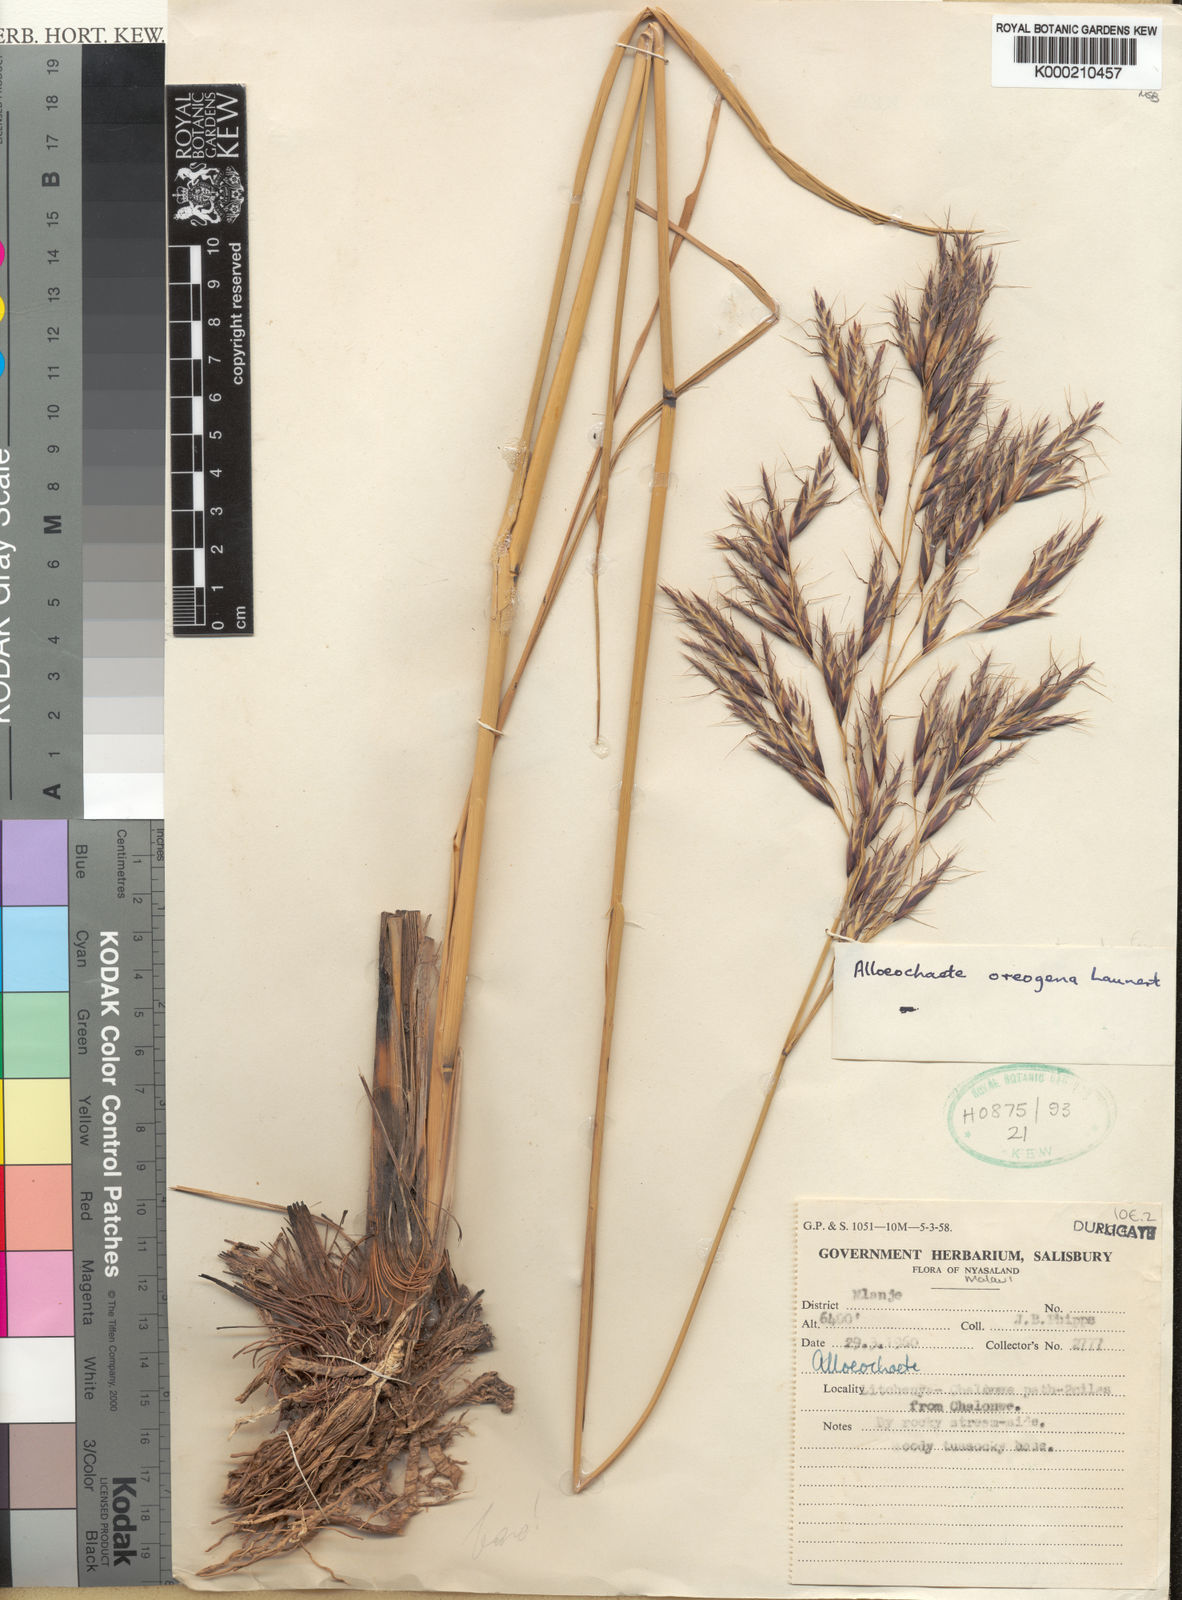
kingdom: Plantae
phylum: Tracheophyta
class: Liliopsida
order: Poales
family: Poaceae
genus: Alloeochaete
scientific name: Alloeochaete oreogena
